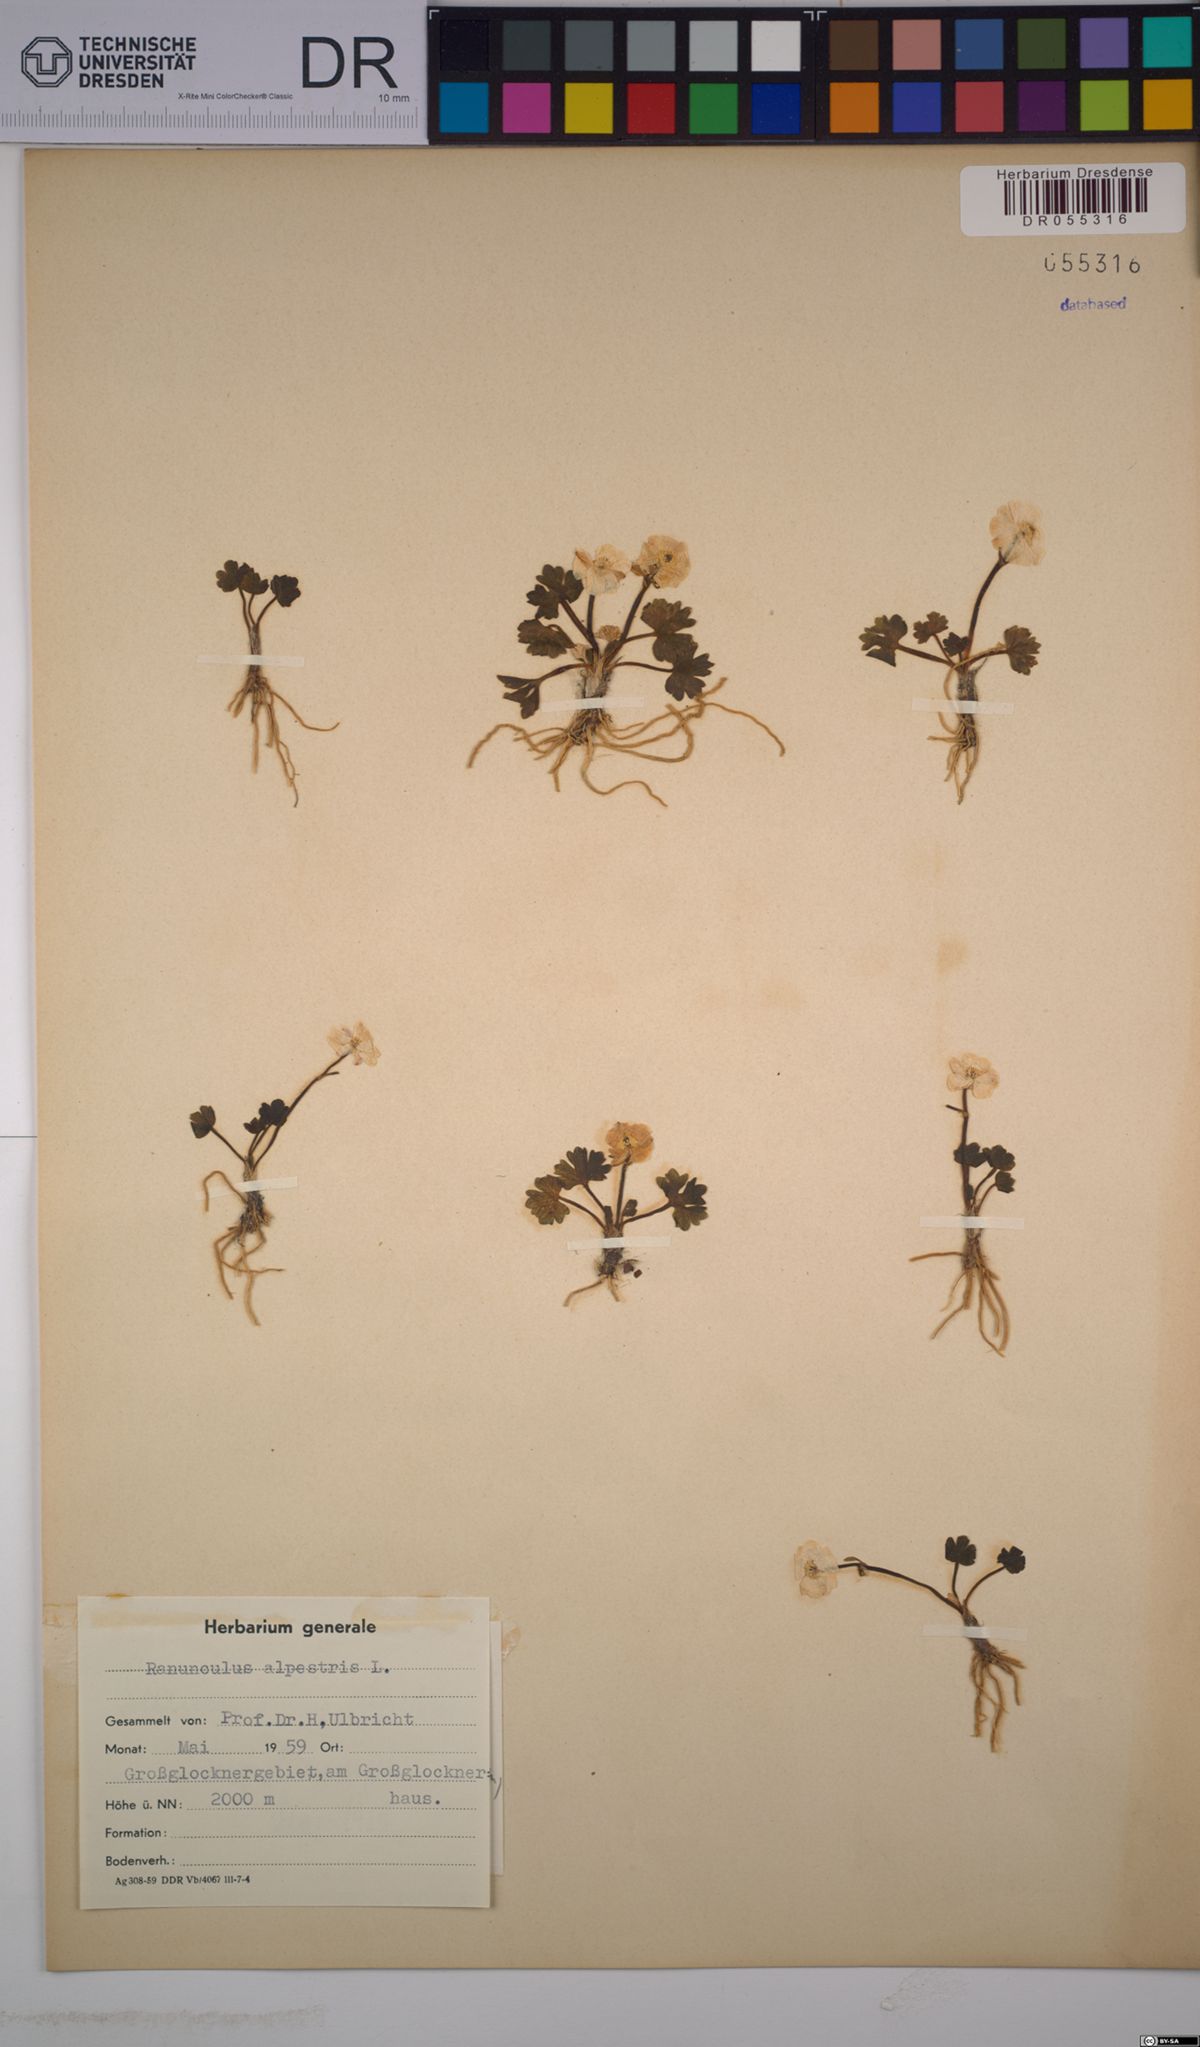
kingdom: Plantae
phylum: Tracheophyta
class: Magnoliopsida
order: Ranunculales
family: Ranunculaceae
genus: Ranunculus
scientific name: Ranunculus alpestris
